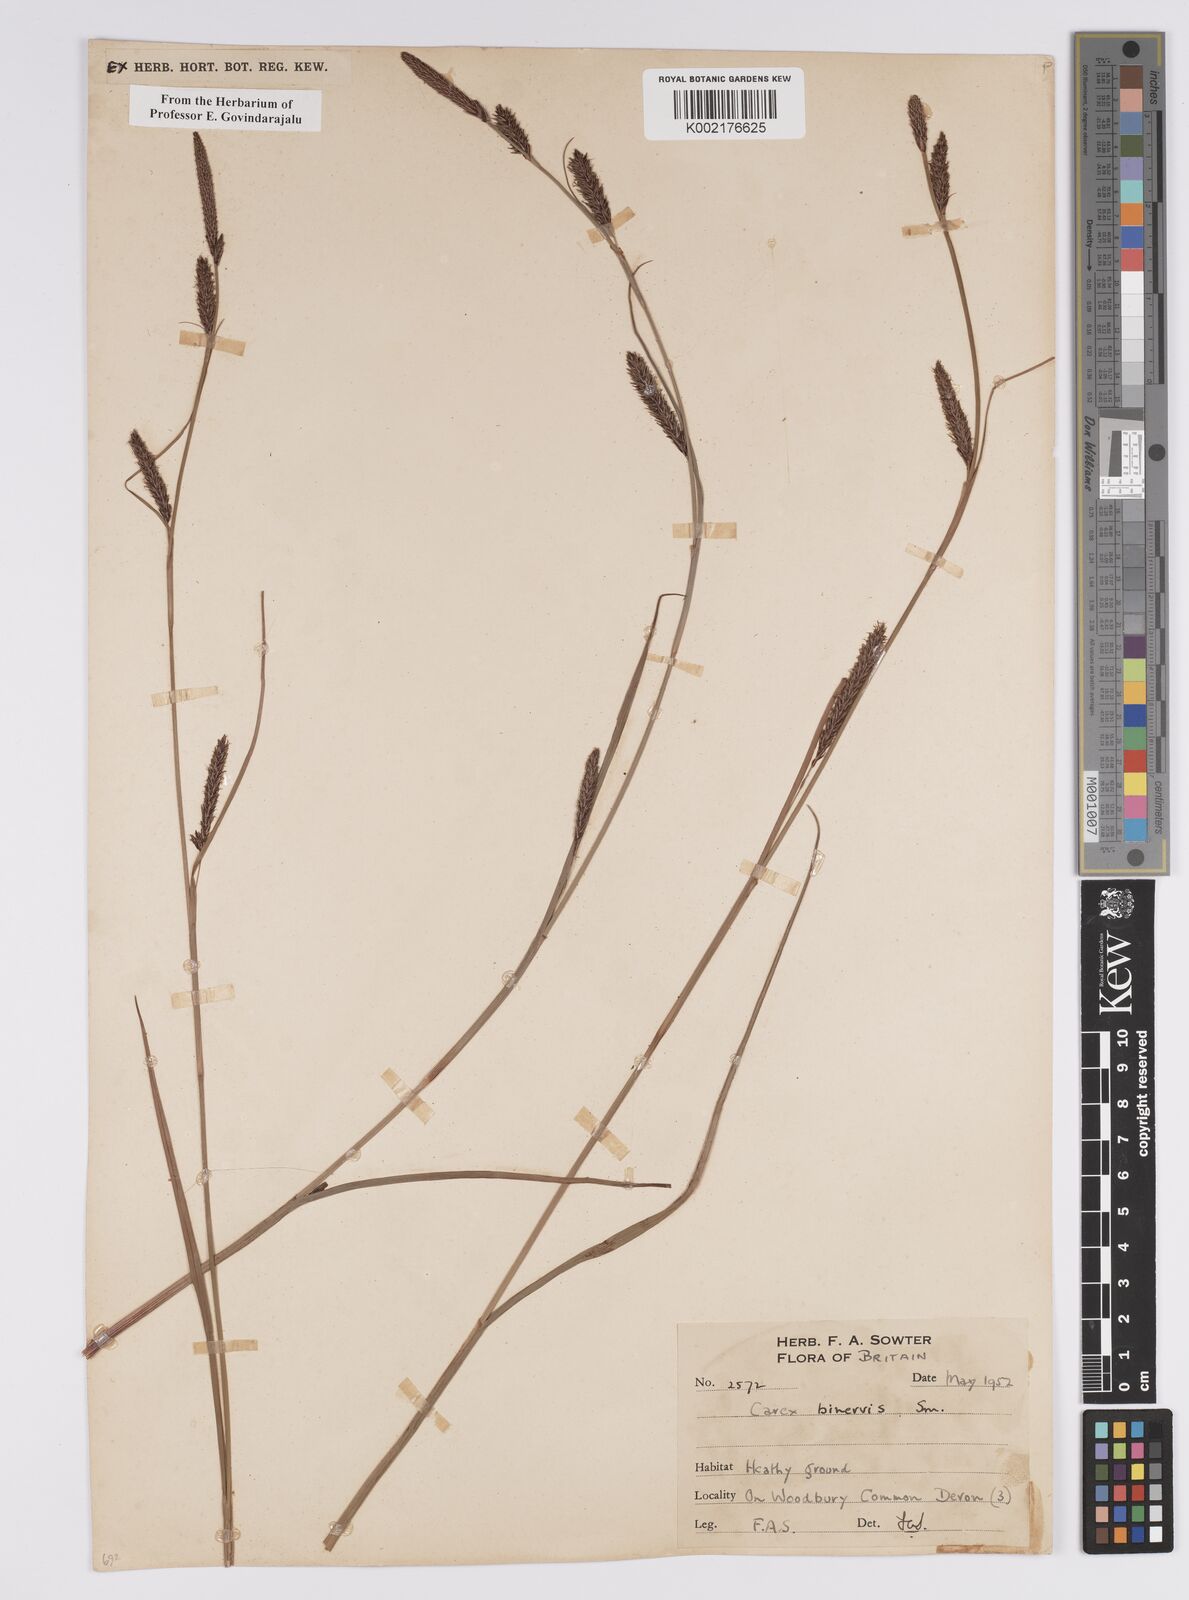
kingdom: Plantae
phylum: Tracheophyta
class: Liliopsida
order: Poales
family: Cyperaceae
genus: Carex
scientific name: Carex binervis
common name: Green-ribbed sedge
